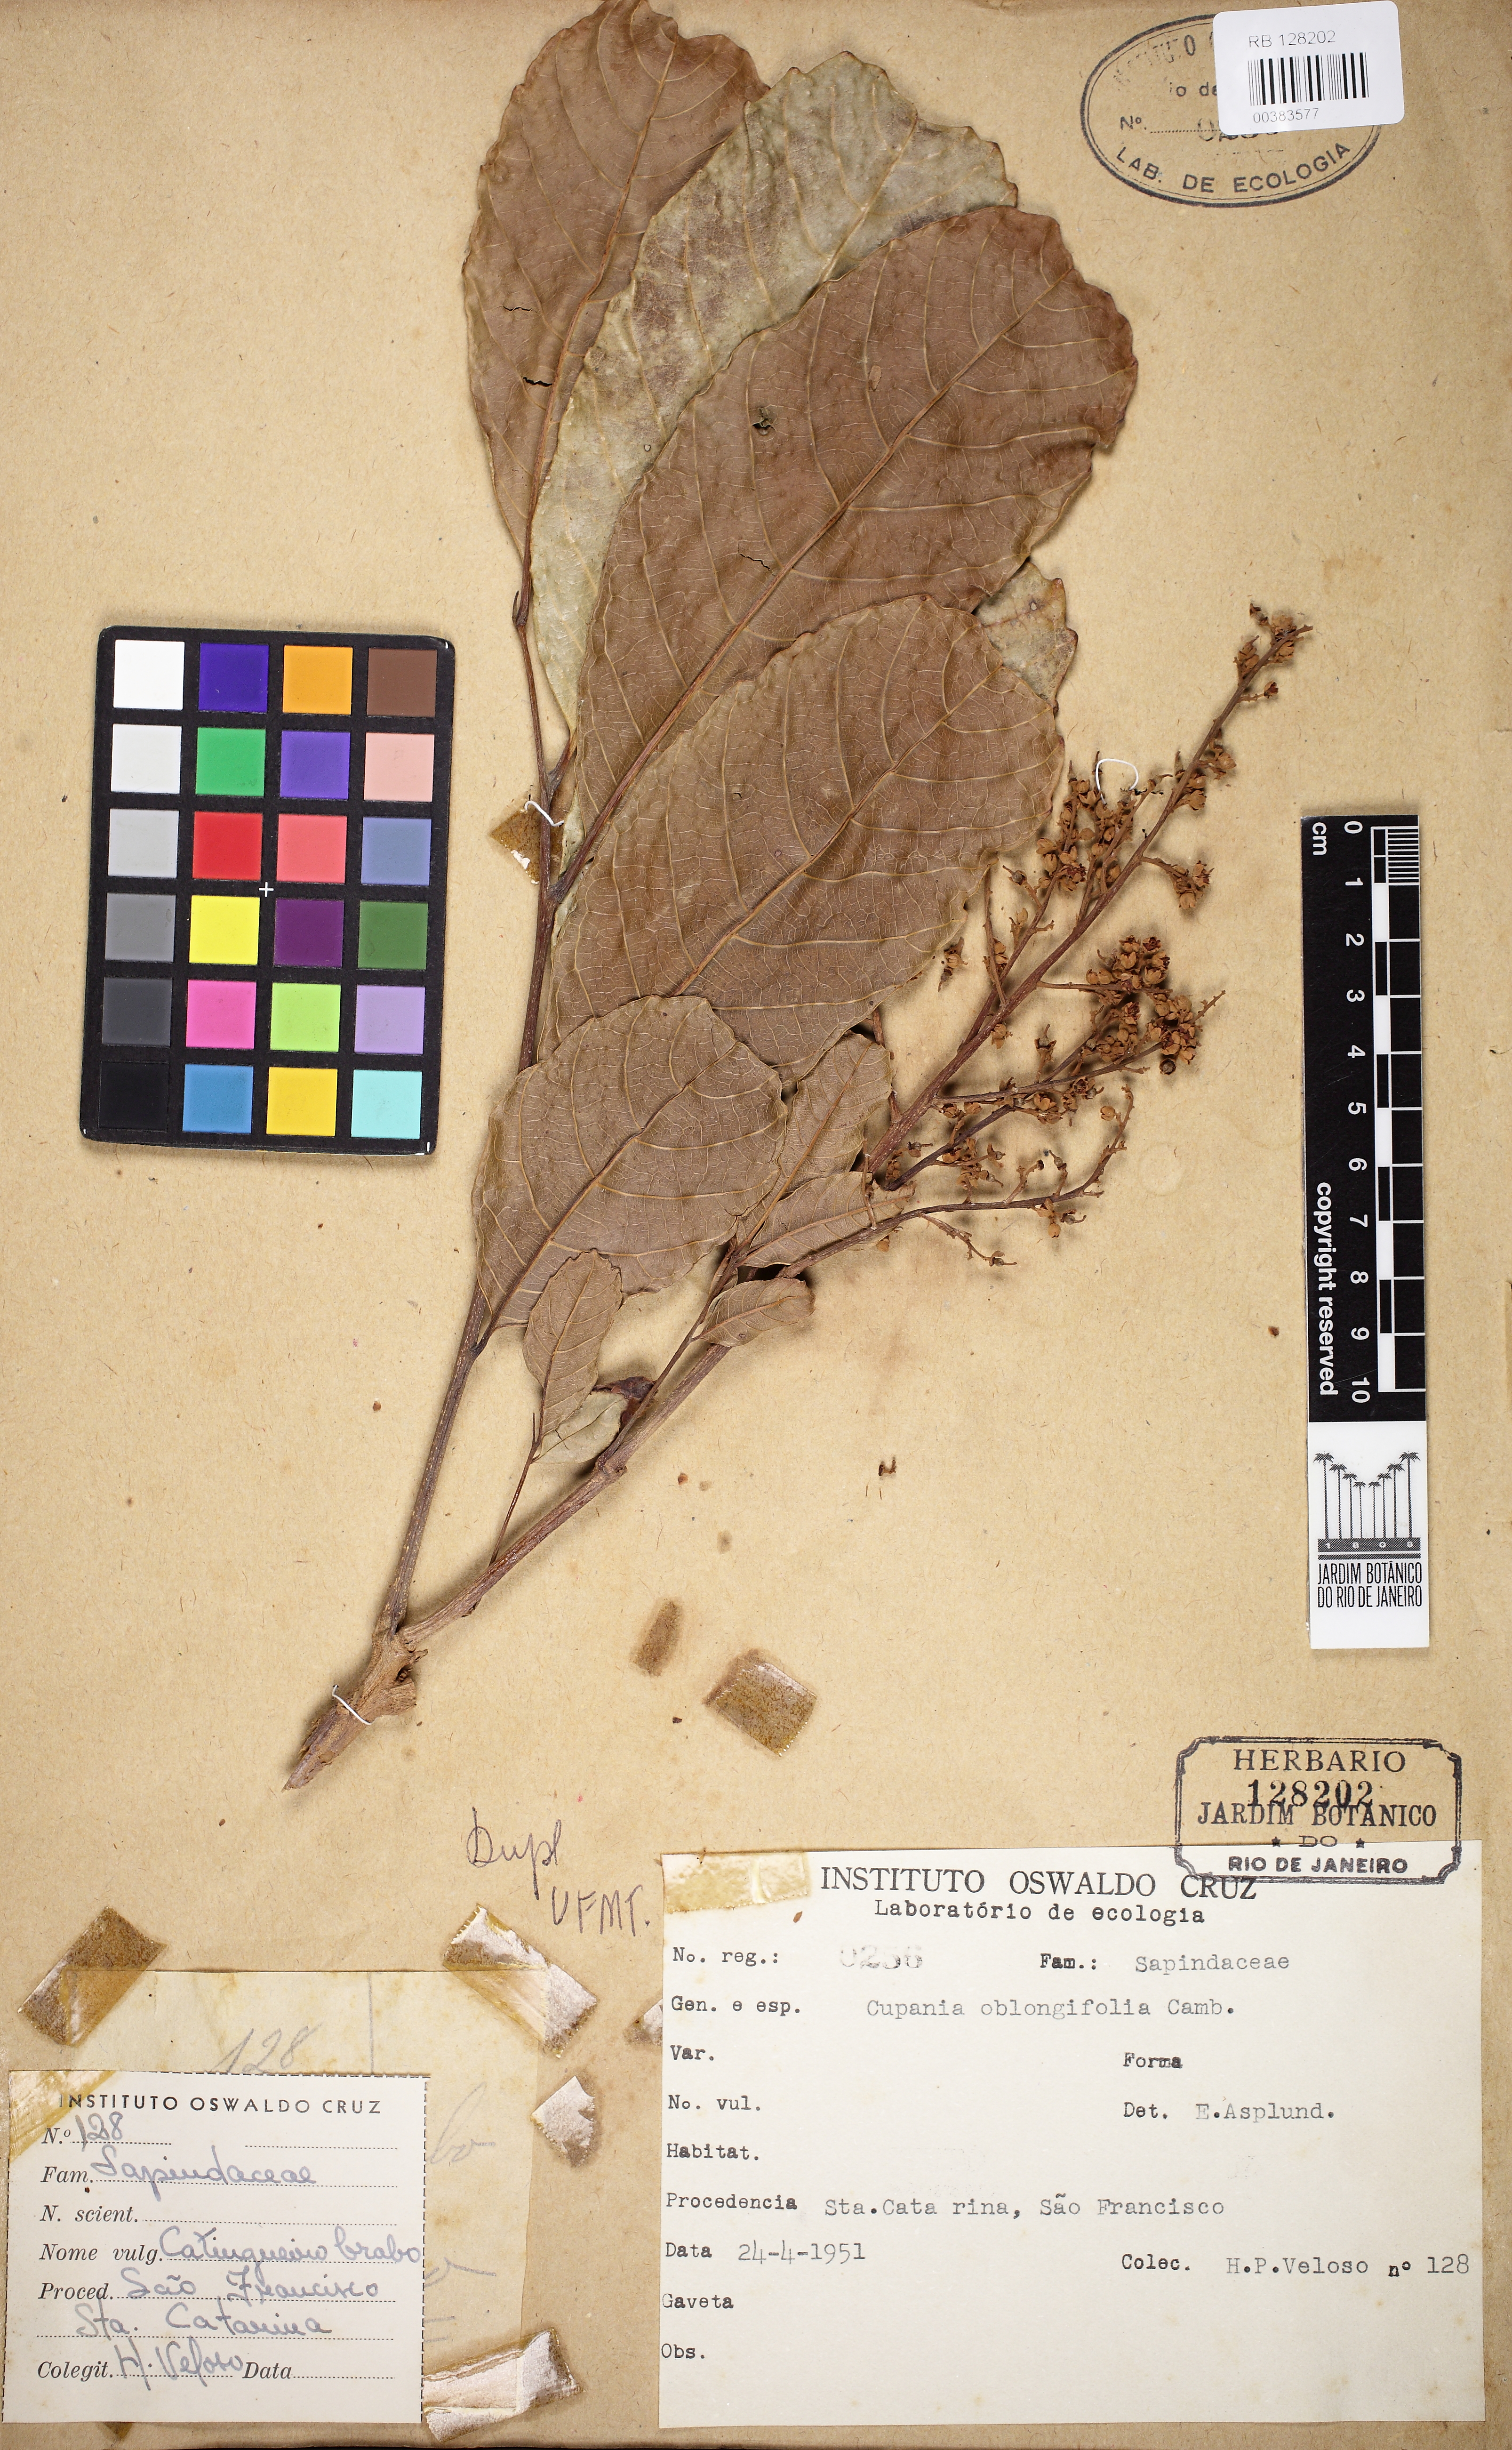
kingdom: Plantae
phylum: Tracheophyta
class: Magnoliopsida
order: Sapindales
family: Sapindaceae
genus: Cupania
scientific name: Cupania oblongifolia
